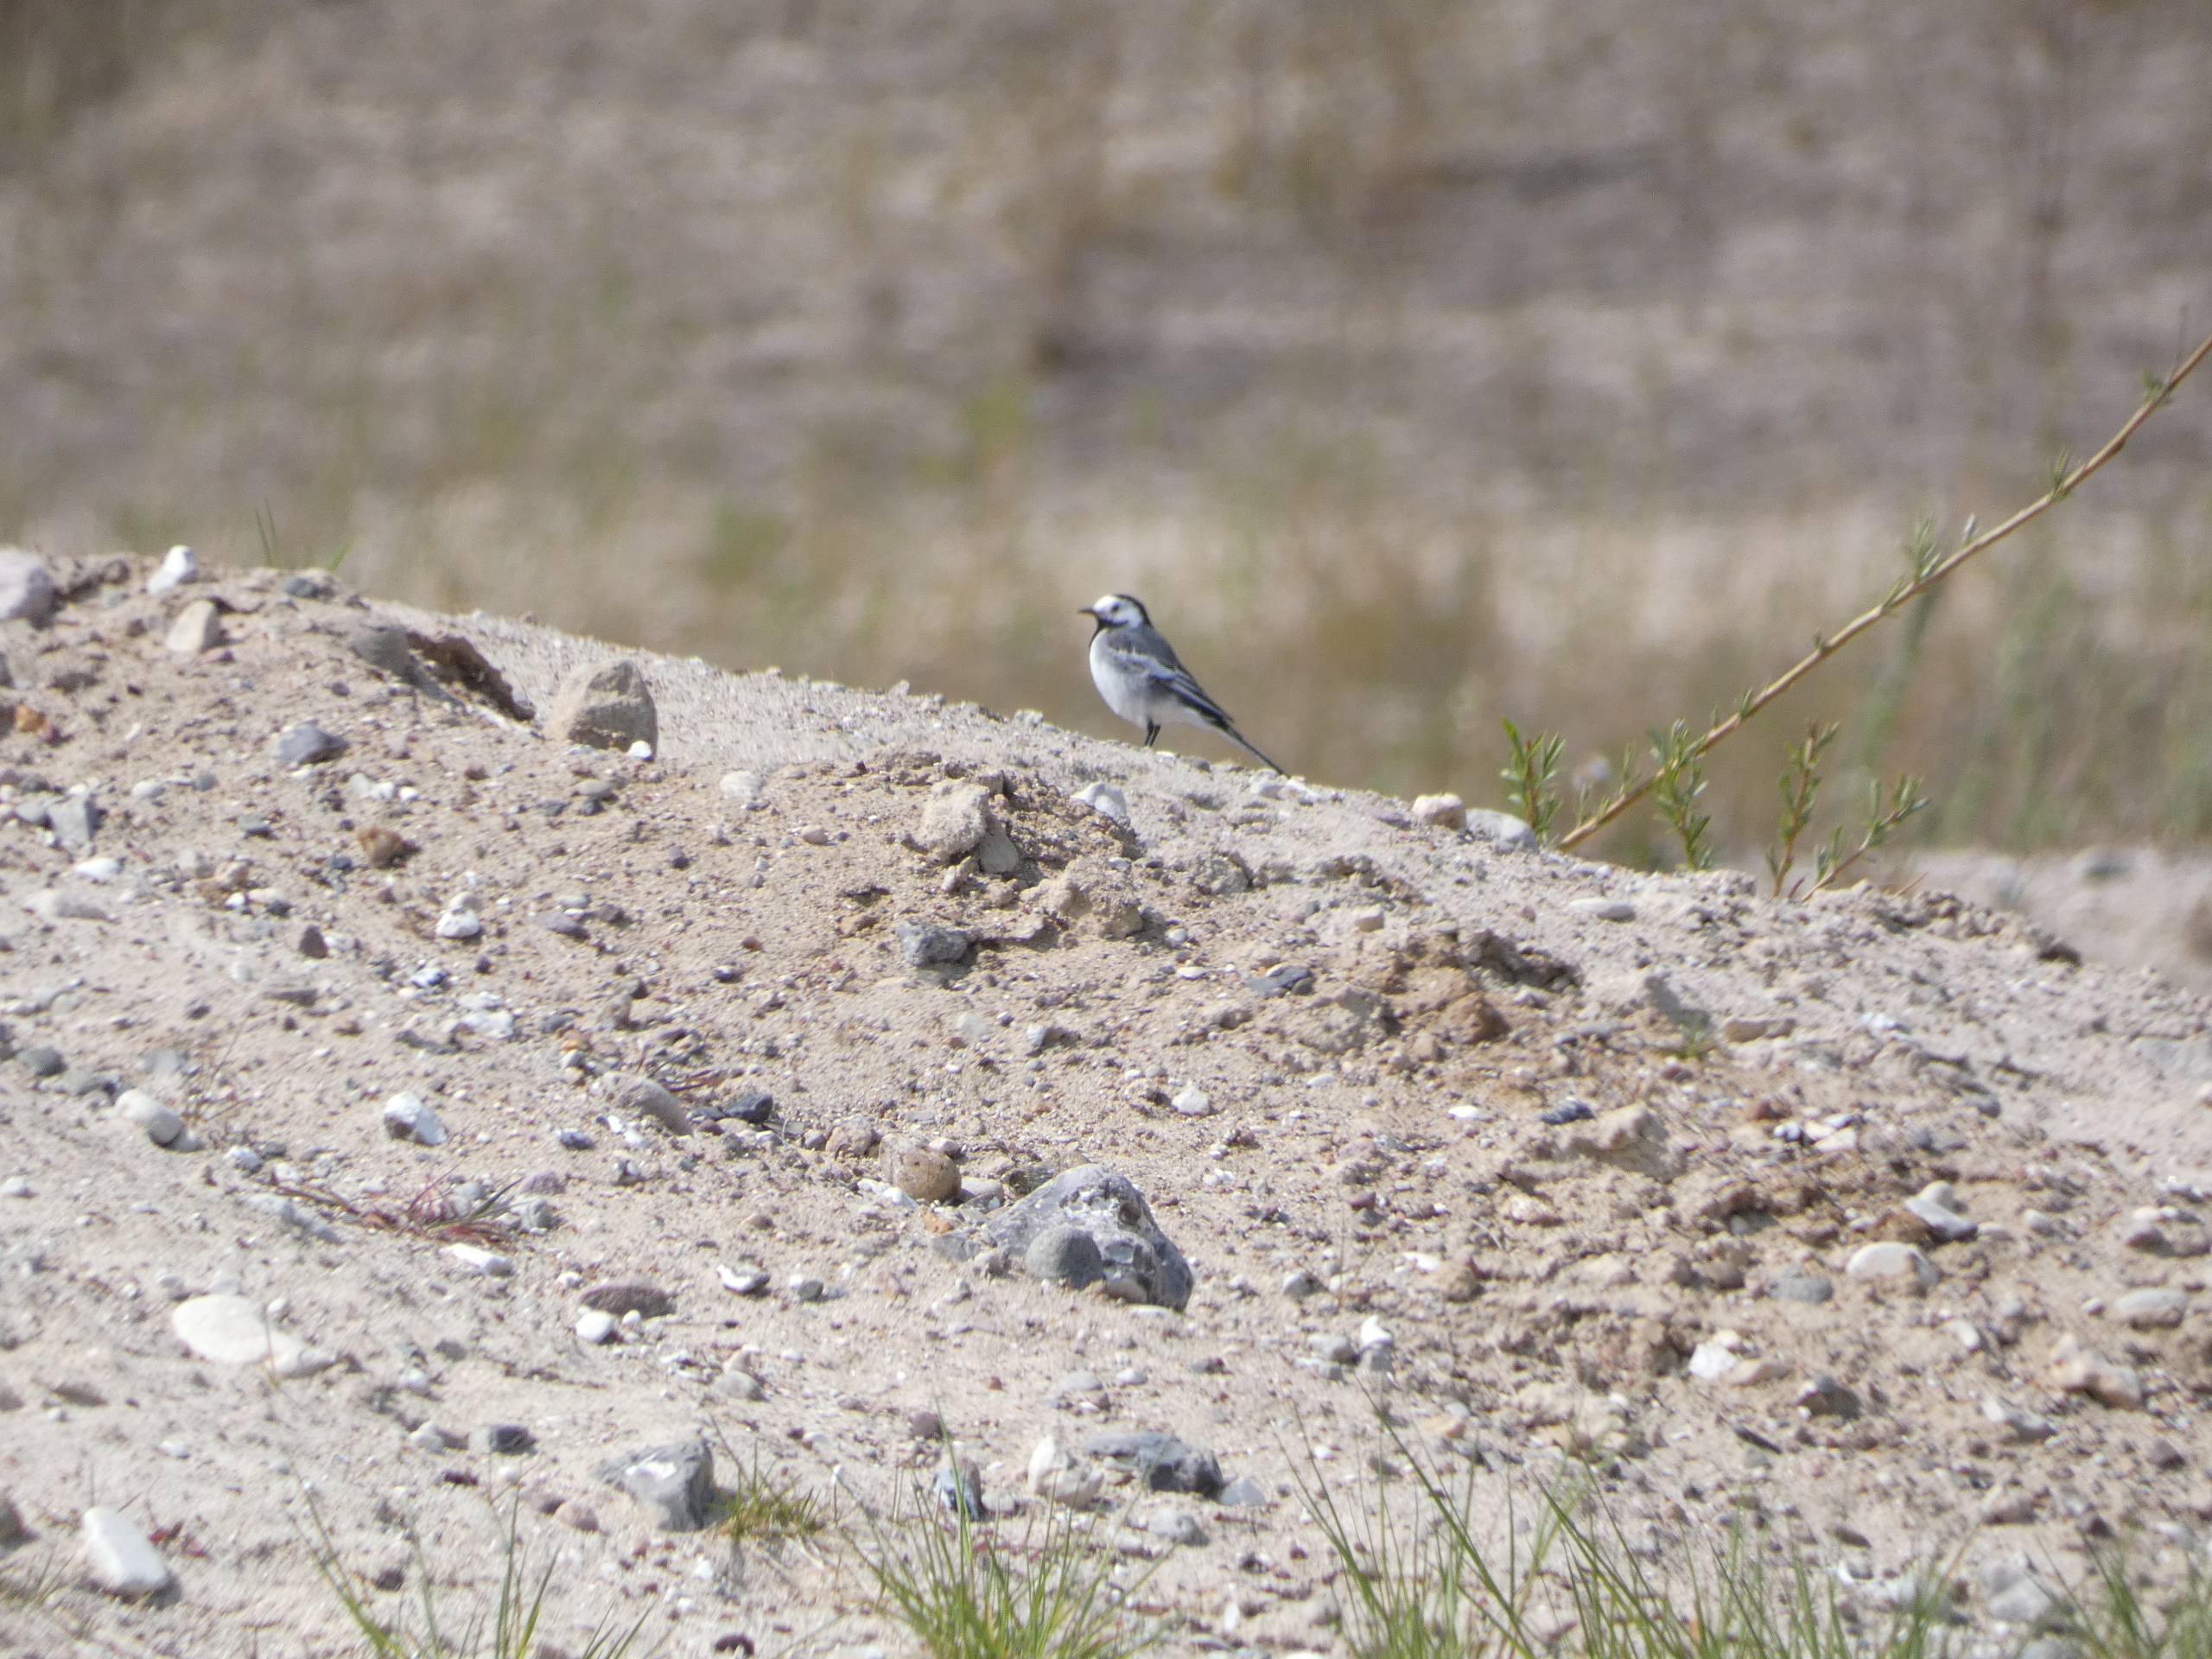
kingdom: Animalia
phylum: Chordata
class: Aves
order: Passeriformes
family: Motacillidae
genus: Motacilla
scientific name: Motacilla alba
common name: Hvid vipstjert
